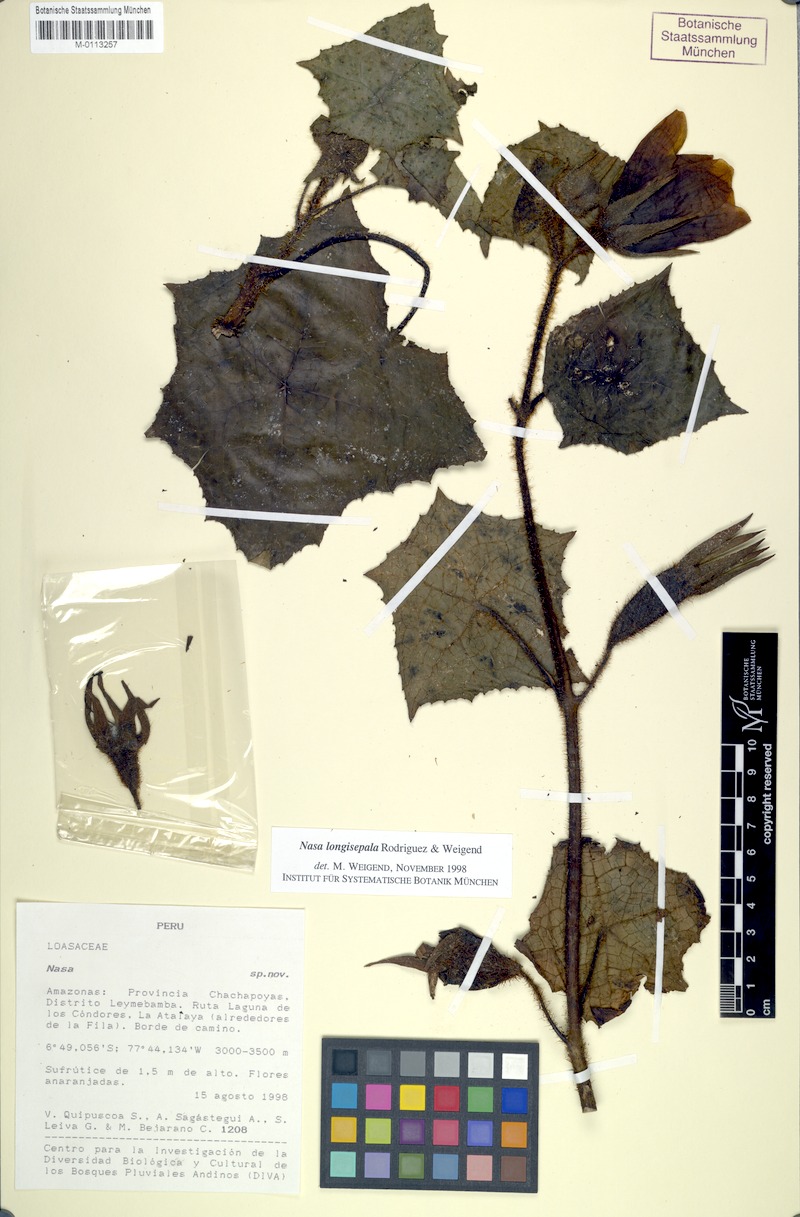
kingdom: Plantae
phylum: Tracheophyta
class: Magnoliopsida
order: Cornales
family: Loasaceae
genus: Nasa
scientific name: Nasa
